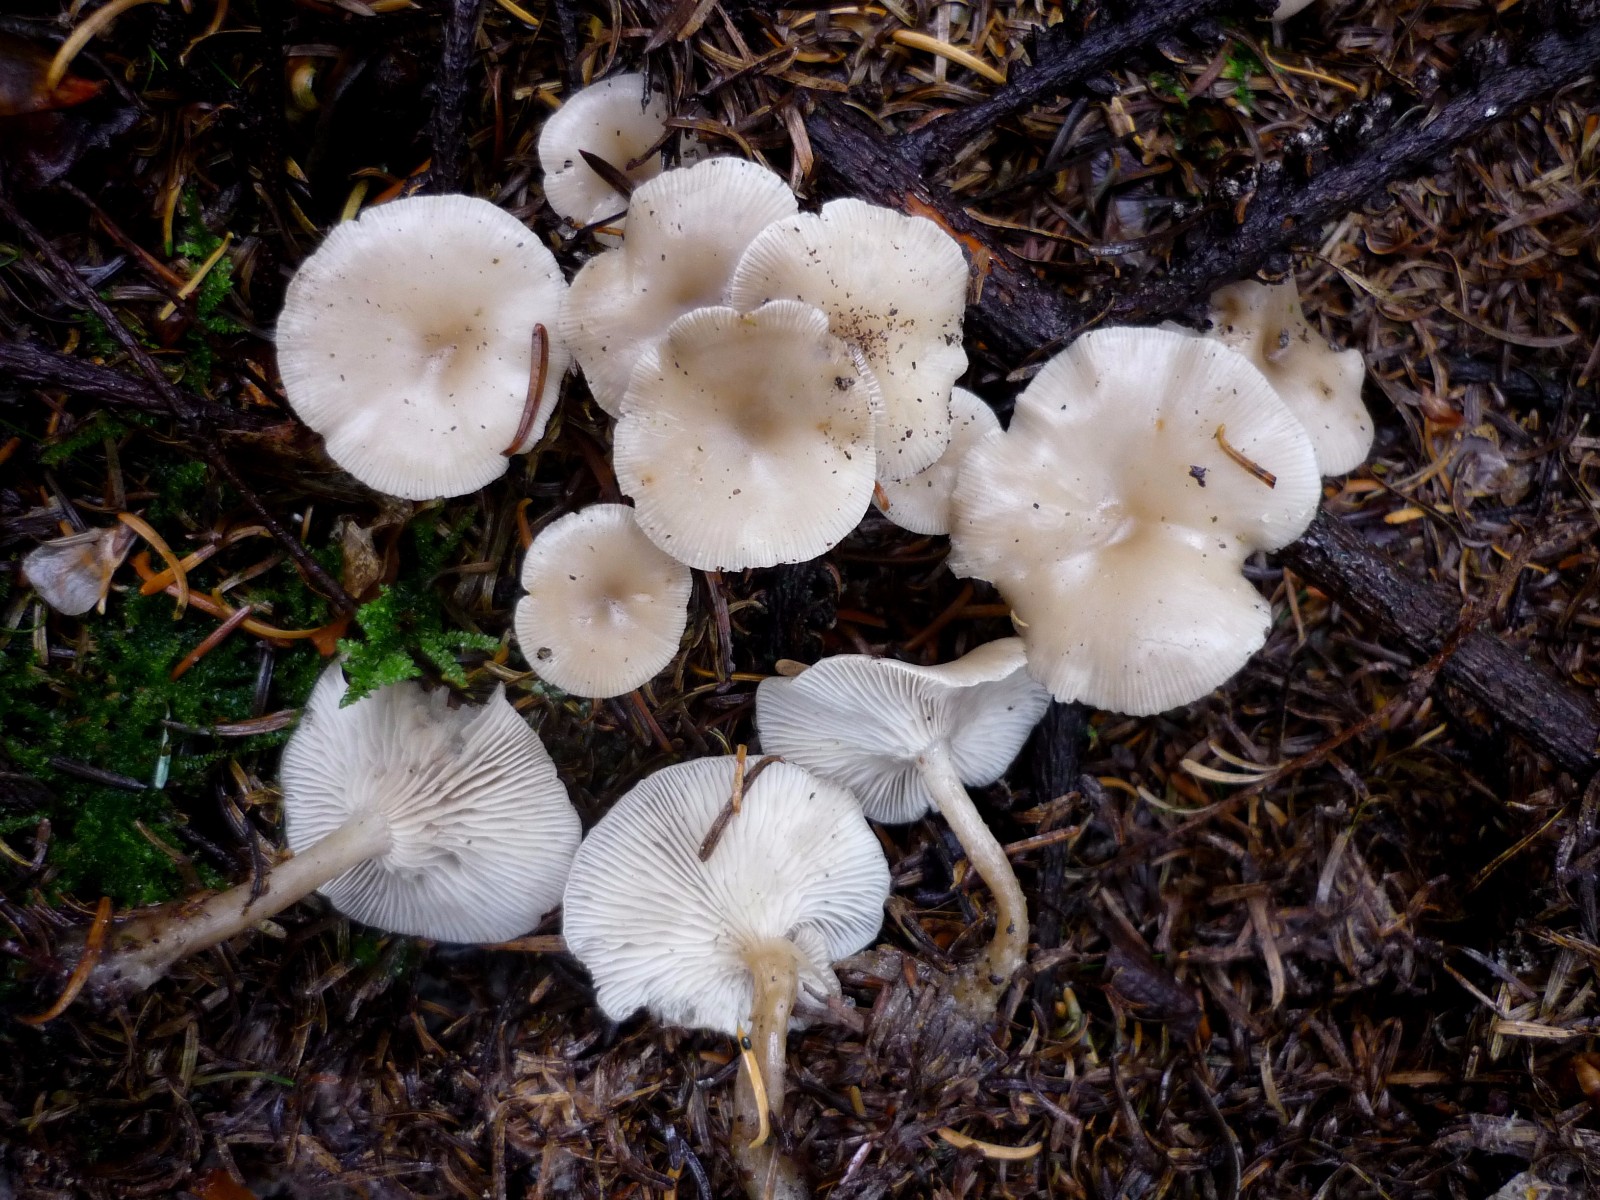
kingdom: Fungi
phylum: Basidiomycota
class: Agaricomycetes
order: Agaricales
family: Tricholomataceae
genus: Clitocybe
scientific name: Clitocybe vibecina
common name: randstribet tragthat
